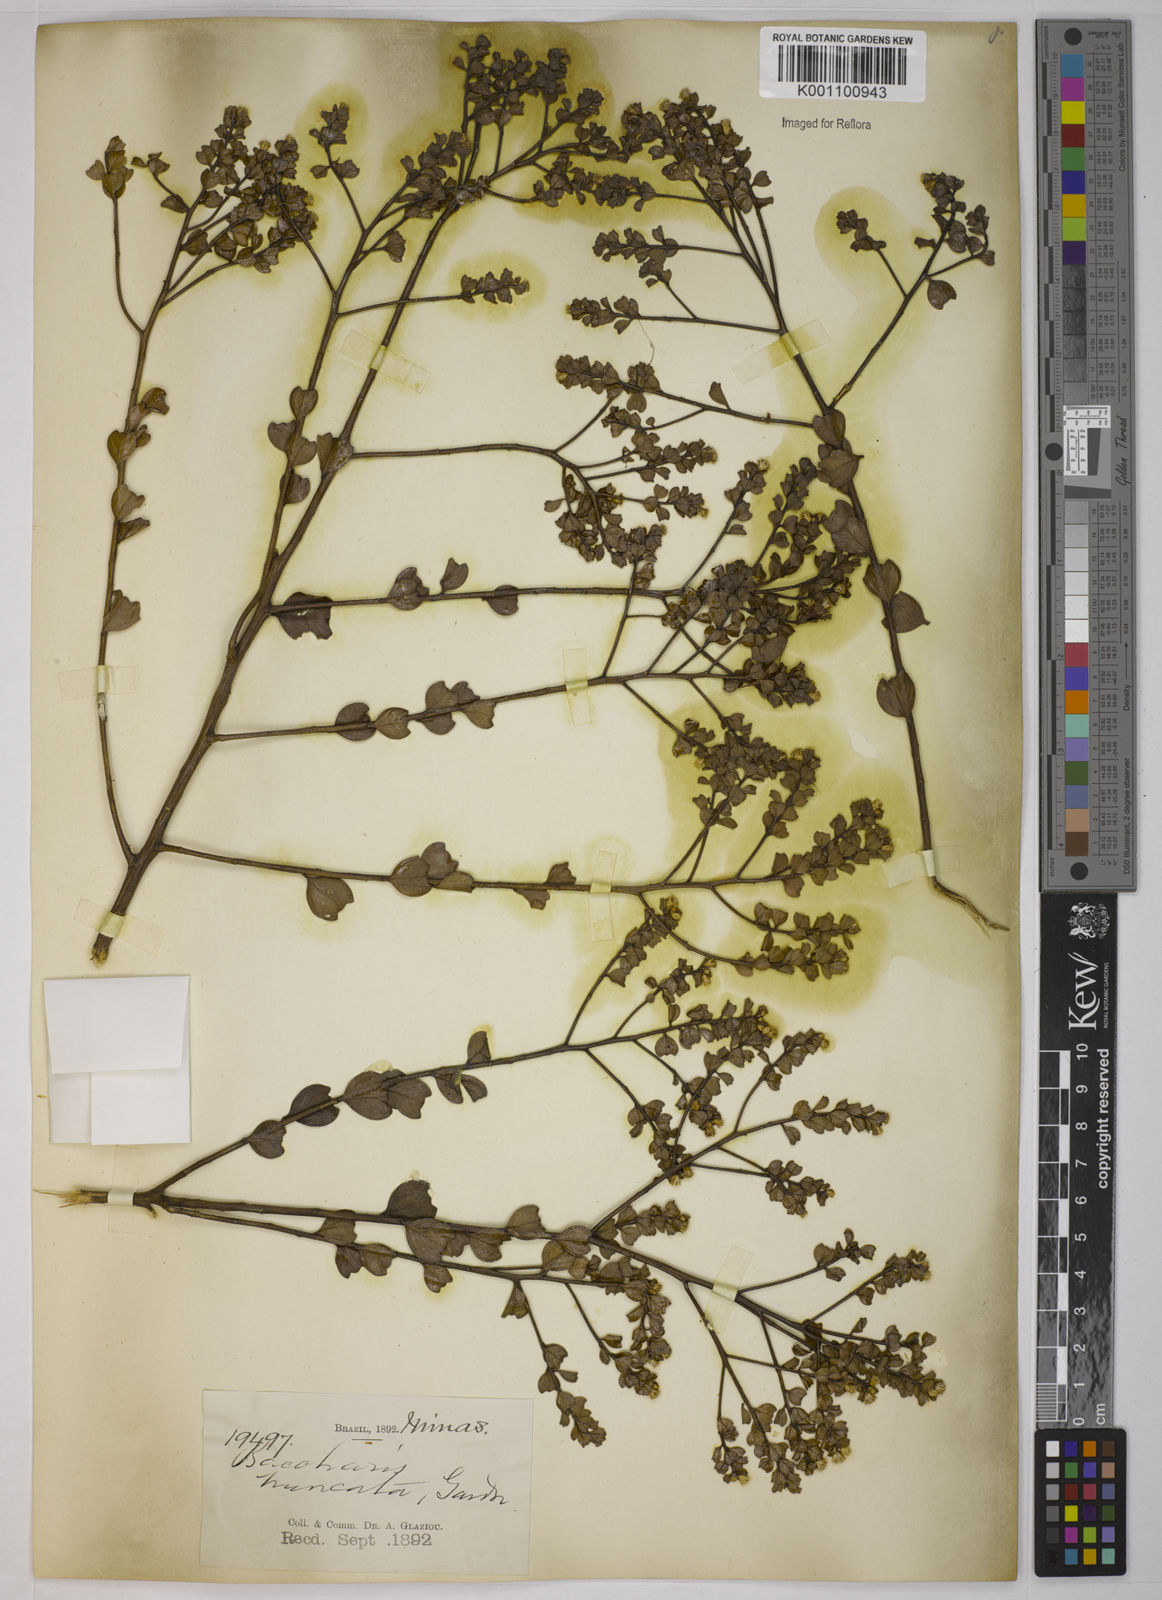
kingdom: Plantae
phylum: Tracheophyta
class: Magnoliopsida
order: Asterales
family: Asteraceae
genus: Baccharis
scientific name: Baccharis truncata
